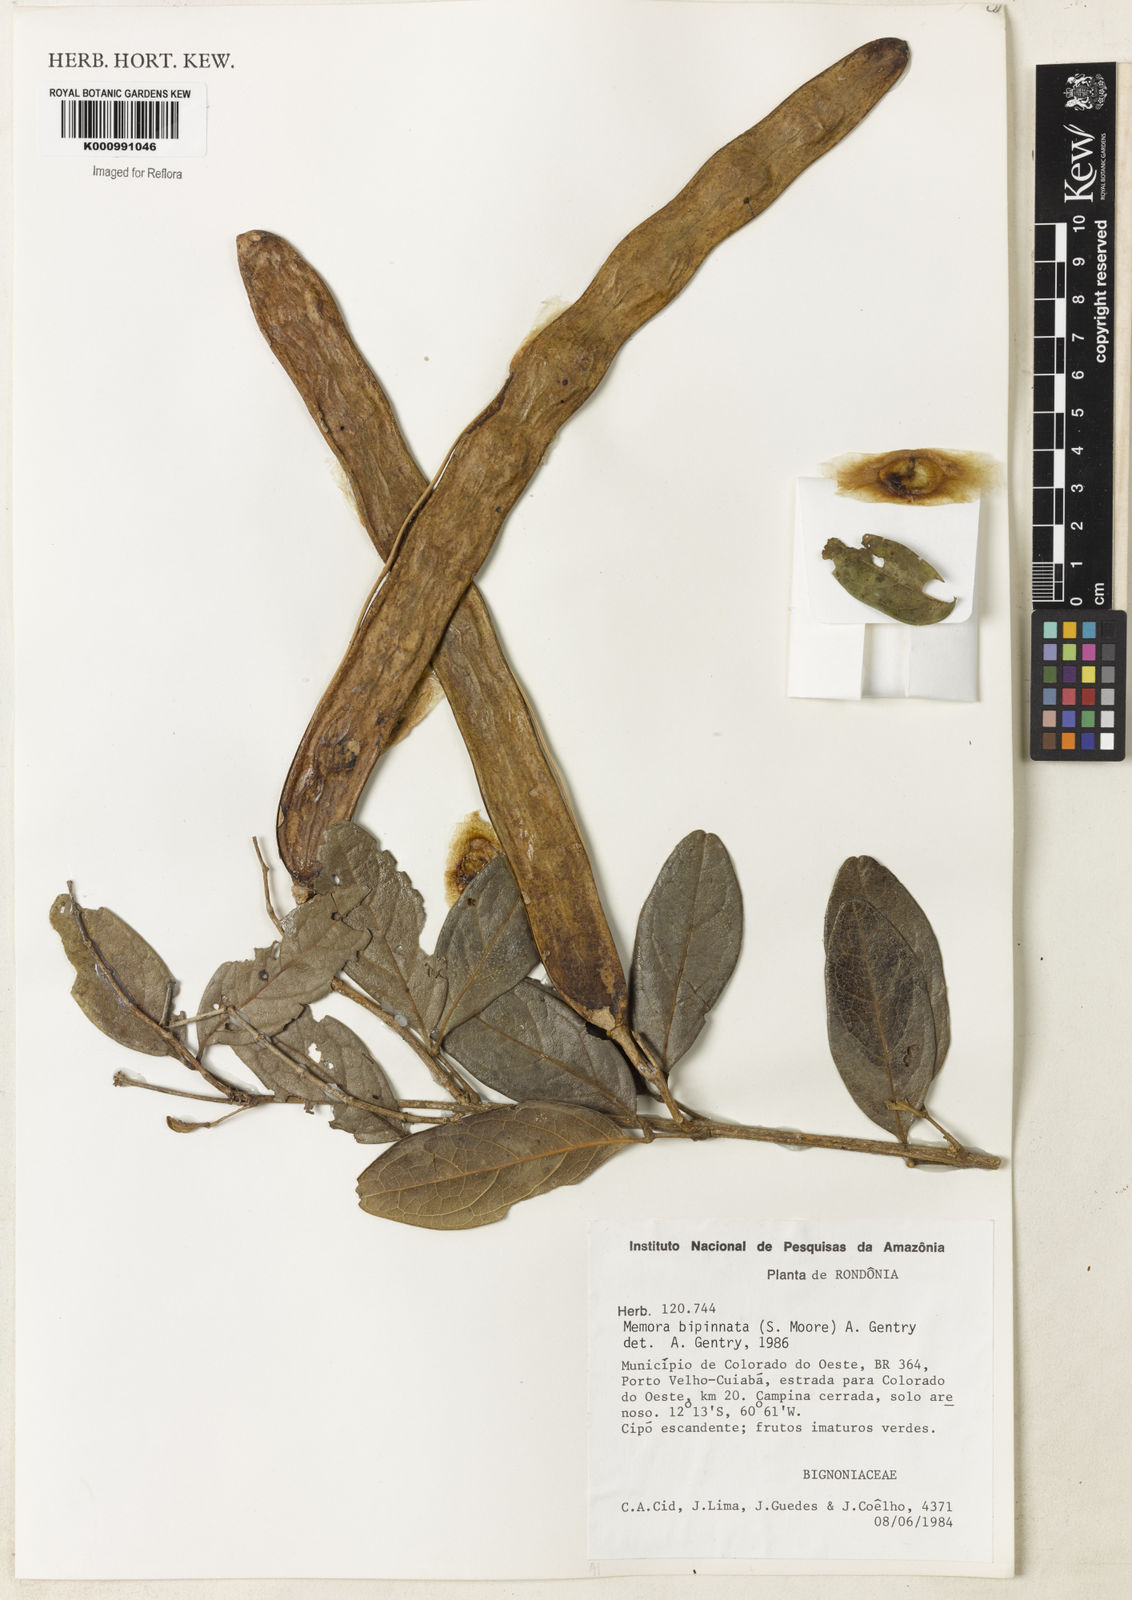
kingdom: Plantae
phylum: Tracheophyta
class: Magnoliopsida
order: Lamiales
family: Bignoniaceae
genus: Adenocalymma
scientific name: Adenocalymma bipinnatum
